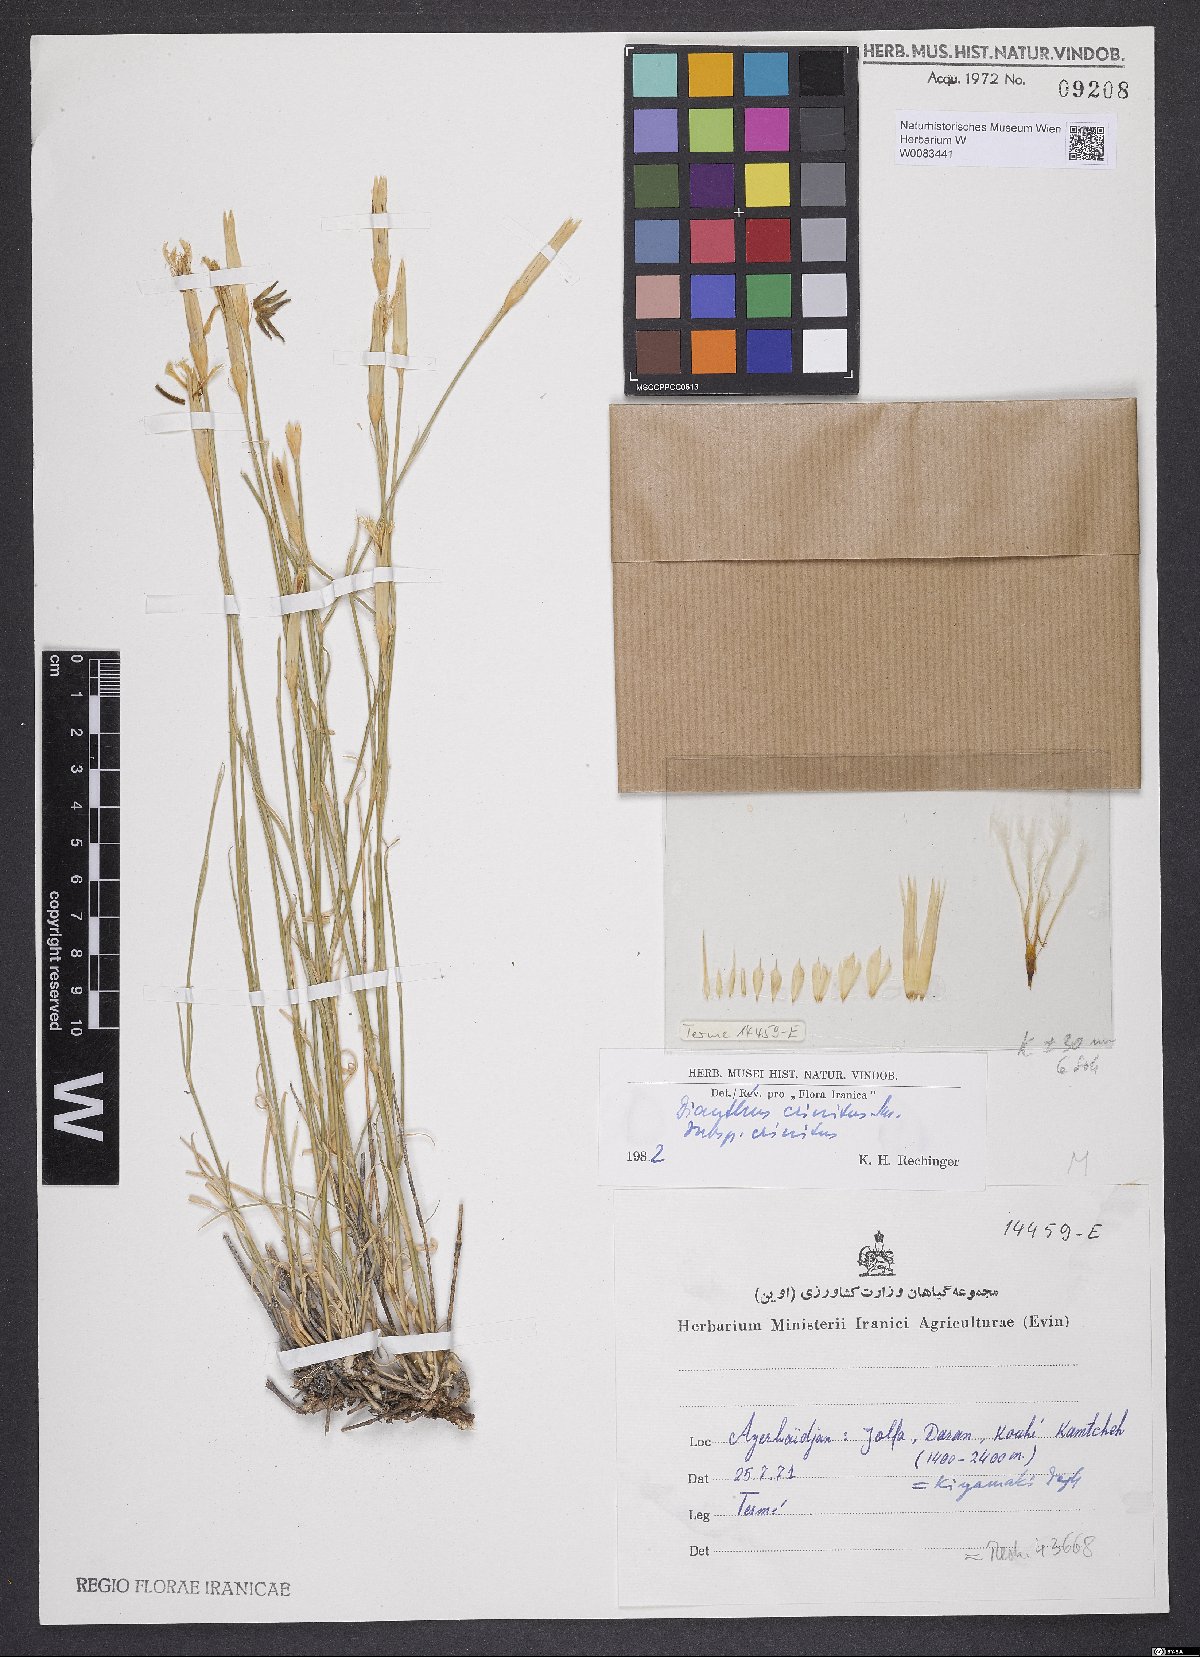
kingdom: Plantae
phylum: Tracheophyta
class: Magnoliopsida
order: Caryophyllales
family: Caryophyllaceae
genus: Dianthus
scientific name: Dianthus crinitus
